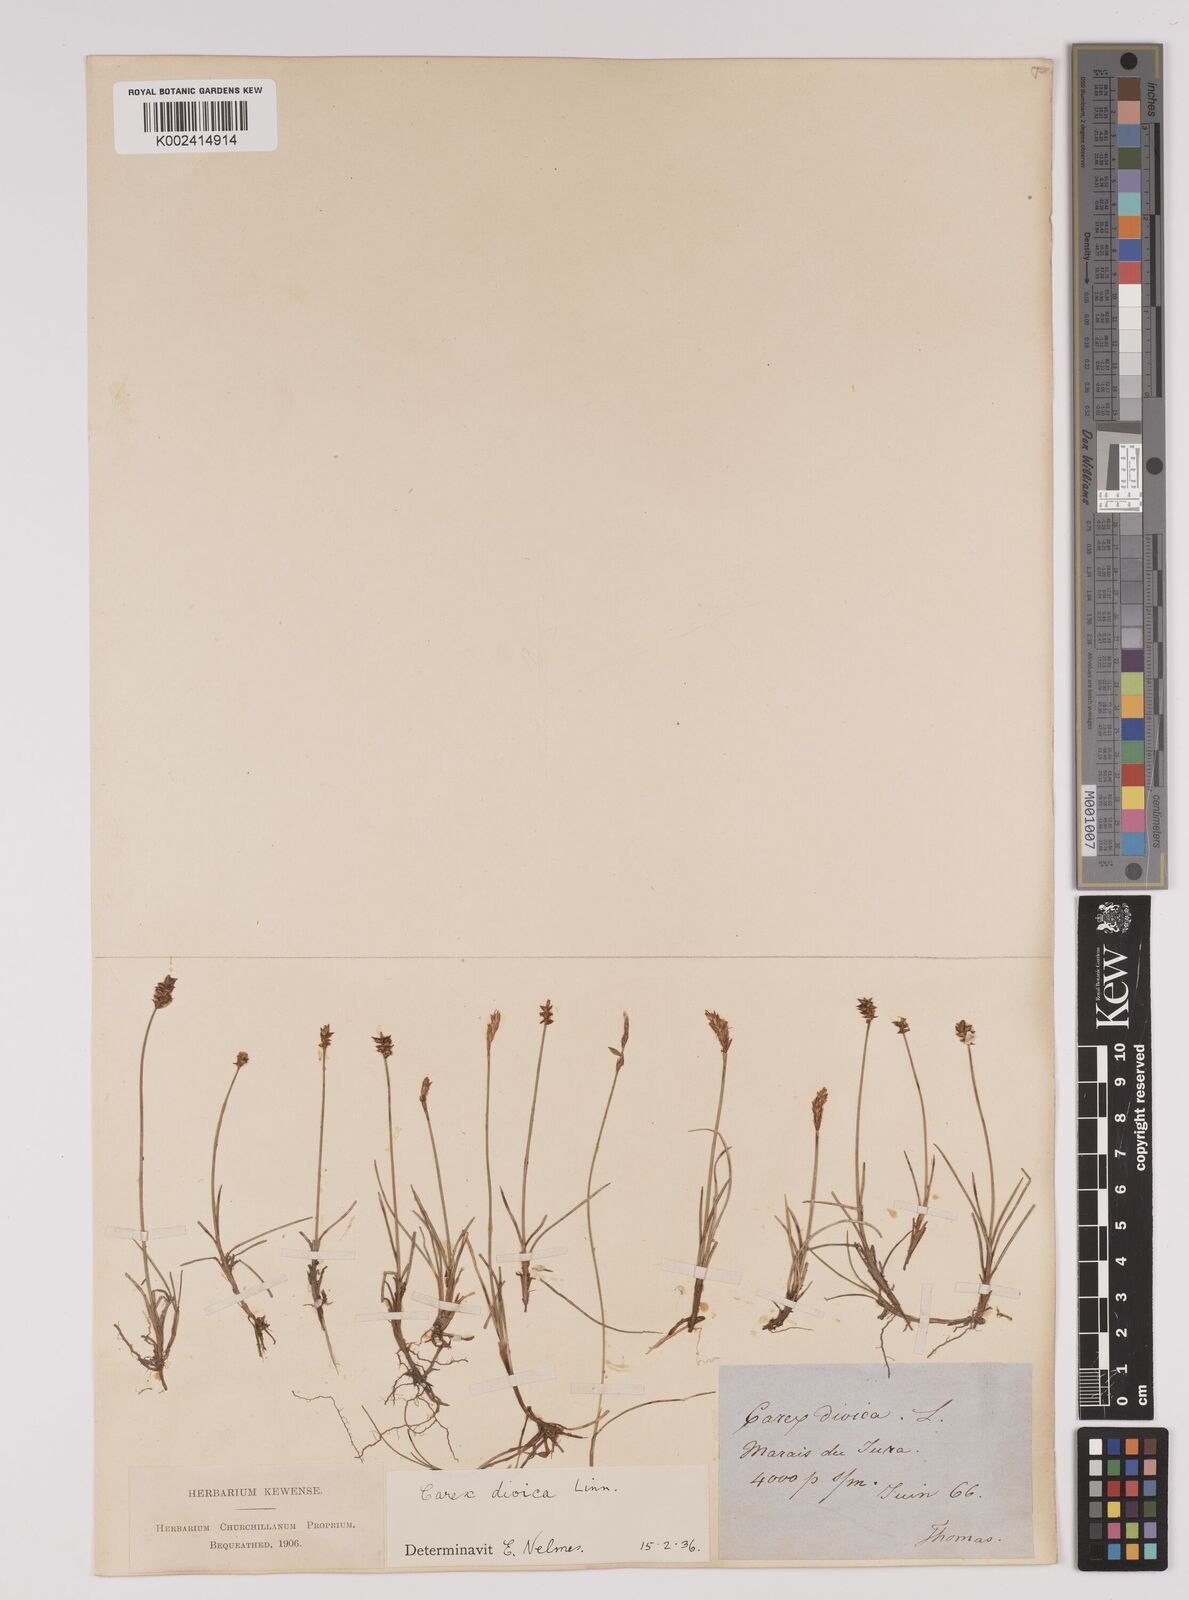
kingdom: Plantae
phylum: Tracheophyta
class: Liliopsida
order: Poales
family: Cyperaceae
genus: Carex
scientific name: Carex dioica
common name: Dioecious sedge
